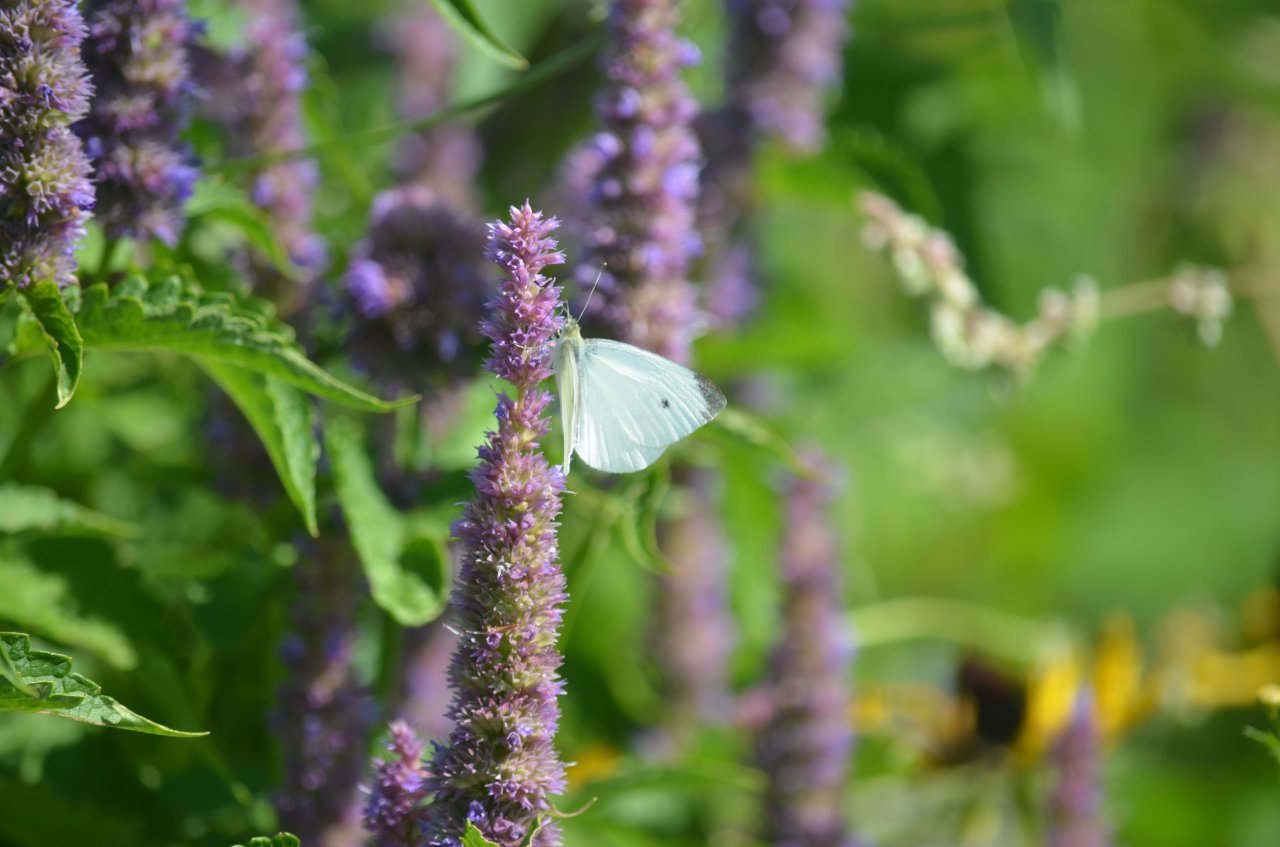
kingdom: Animalia
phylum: Arthropoda
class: Insecta
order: Lepidoptera
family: Pieridae
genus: Pieris
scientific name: Pieris rapae
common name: Cabbage White
